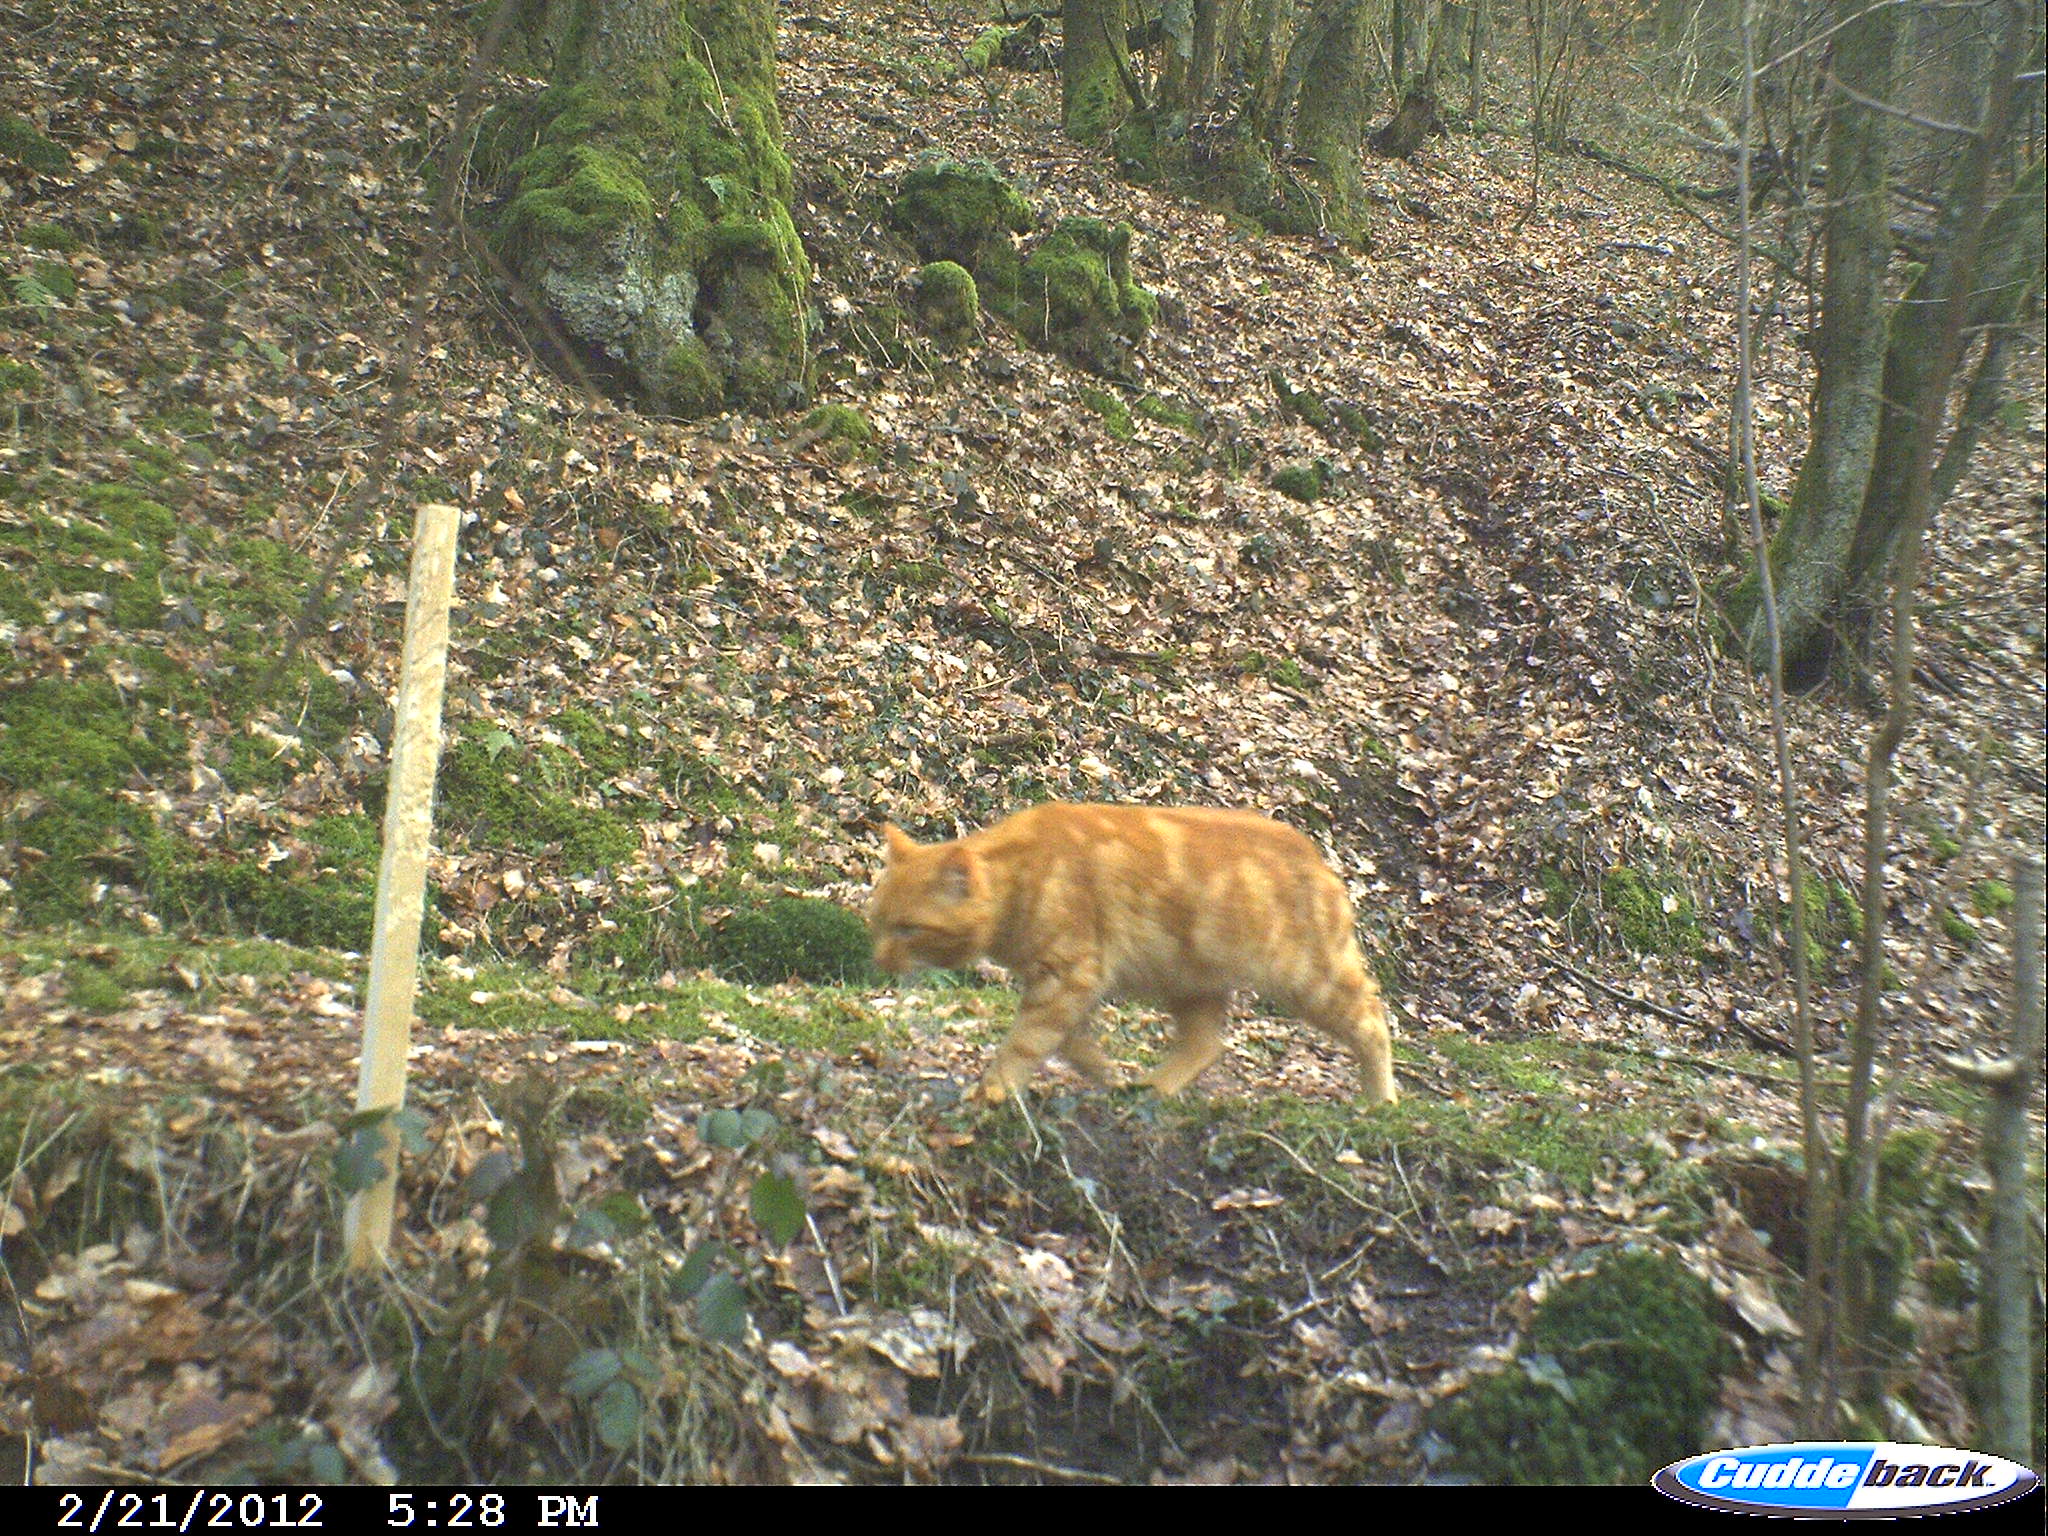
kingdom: Animalia
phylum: Chordata
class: Mammalia
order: Carnivora
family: Felidae
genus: Felis
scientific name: Felis catus
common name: Domestic cat
